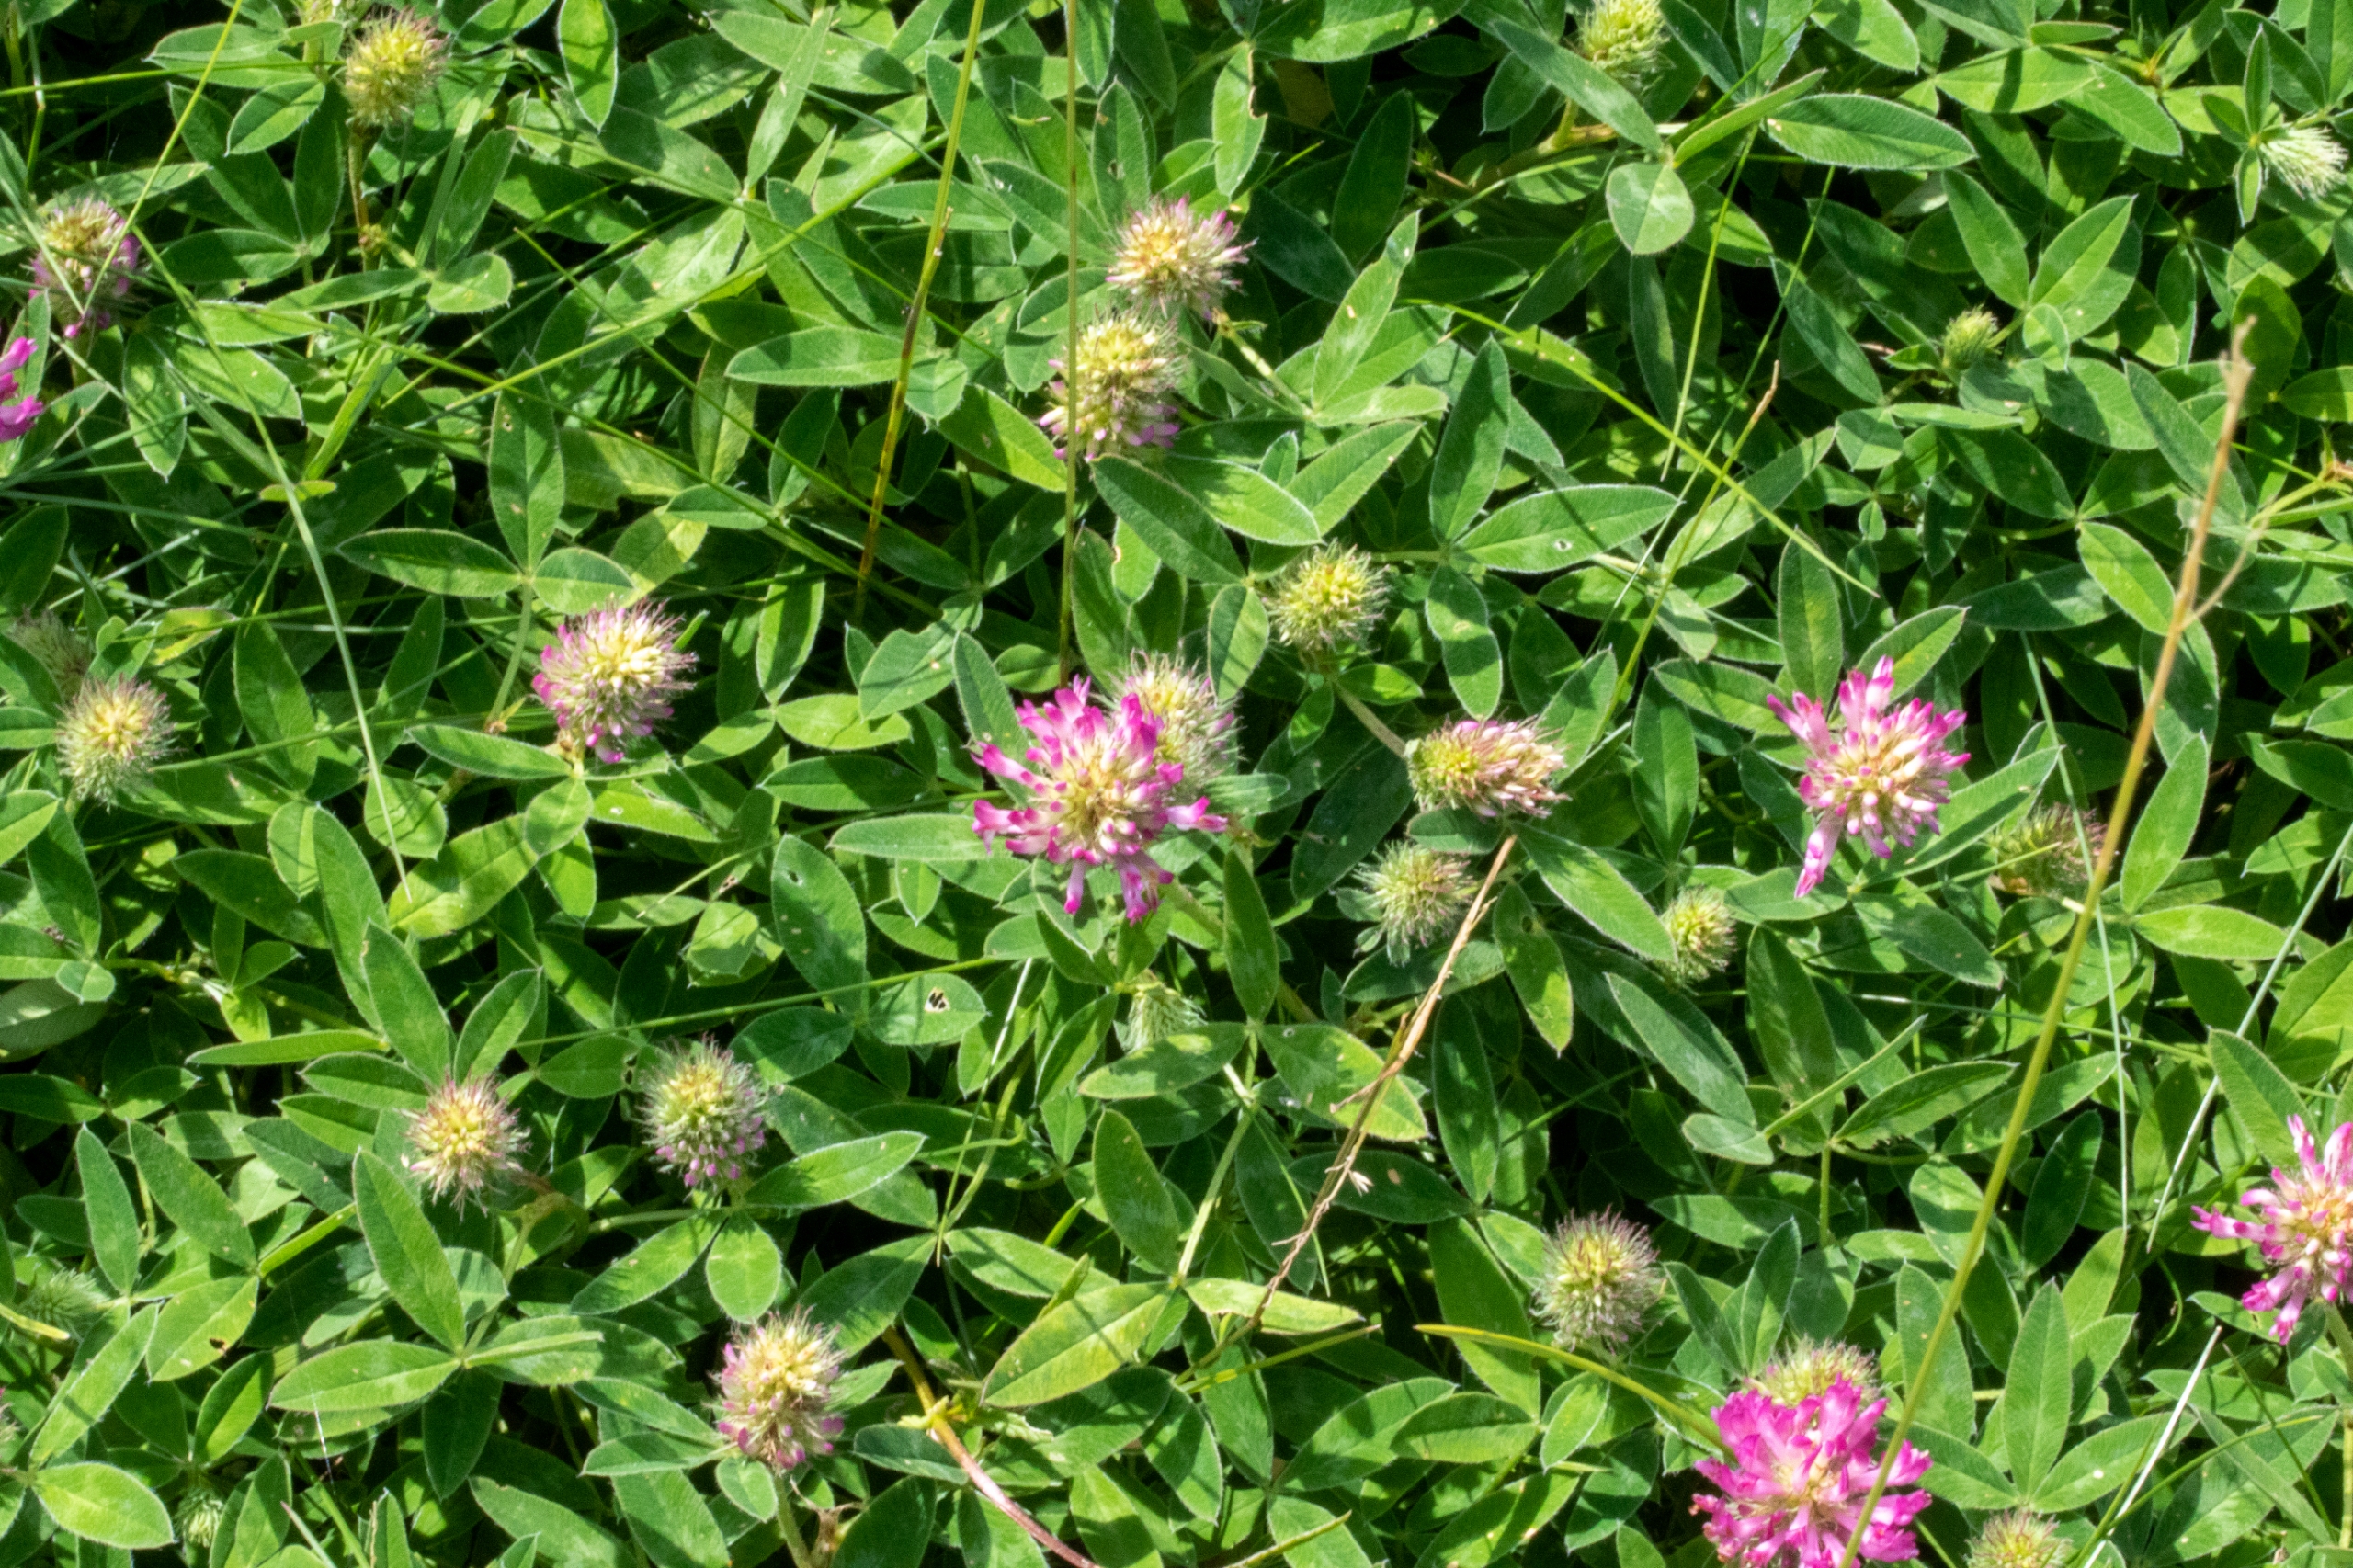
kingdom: Plantae
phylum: Tracheophyta
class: Magnoliopsida
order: Fabales
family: Fabaceae
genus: Trifolium
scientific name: Trifolium medium
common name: Bugtet kløver
